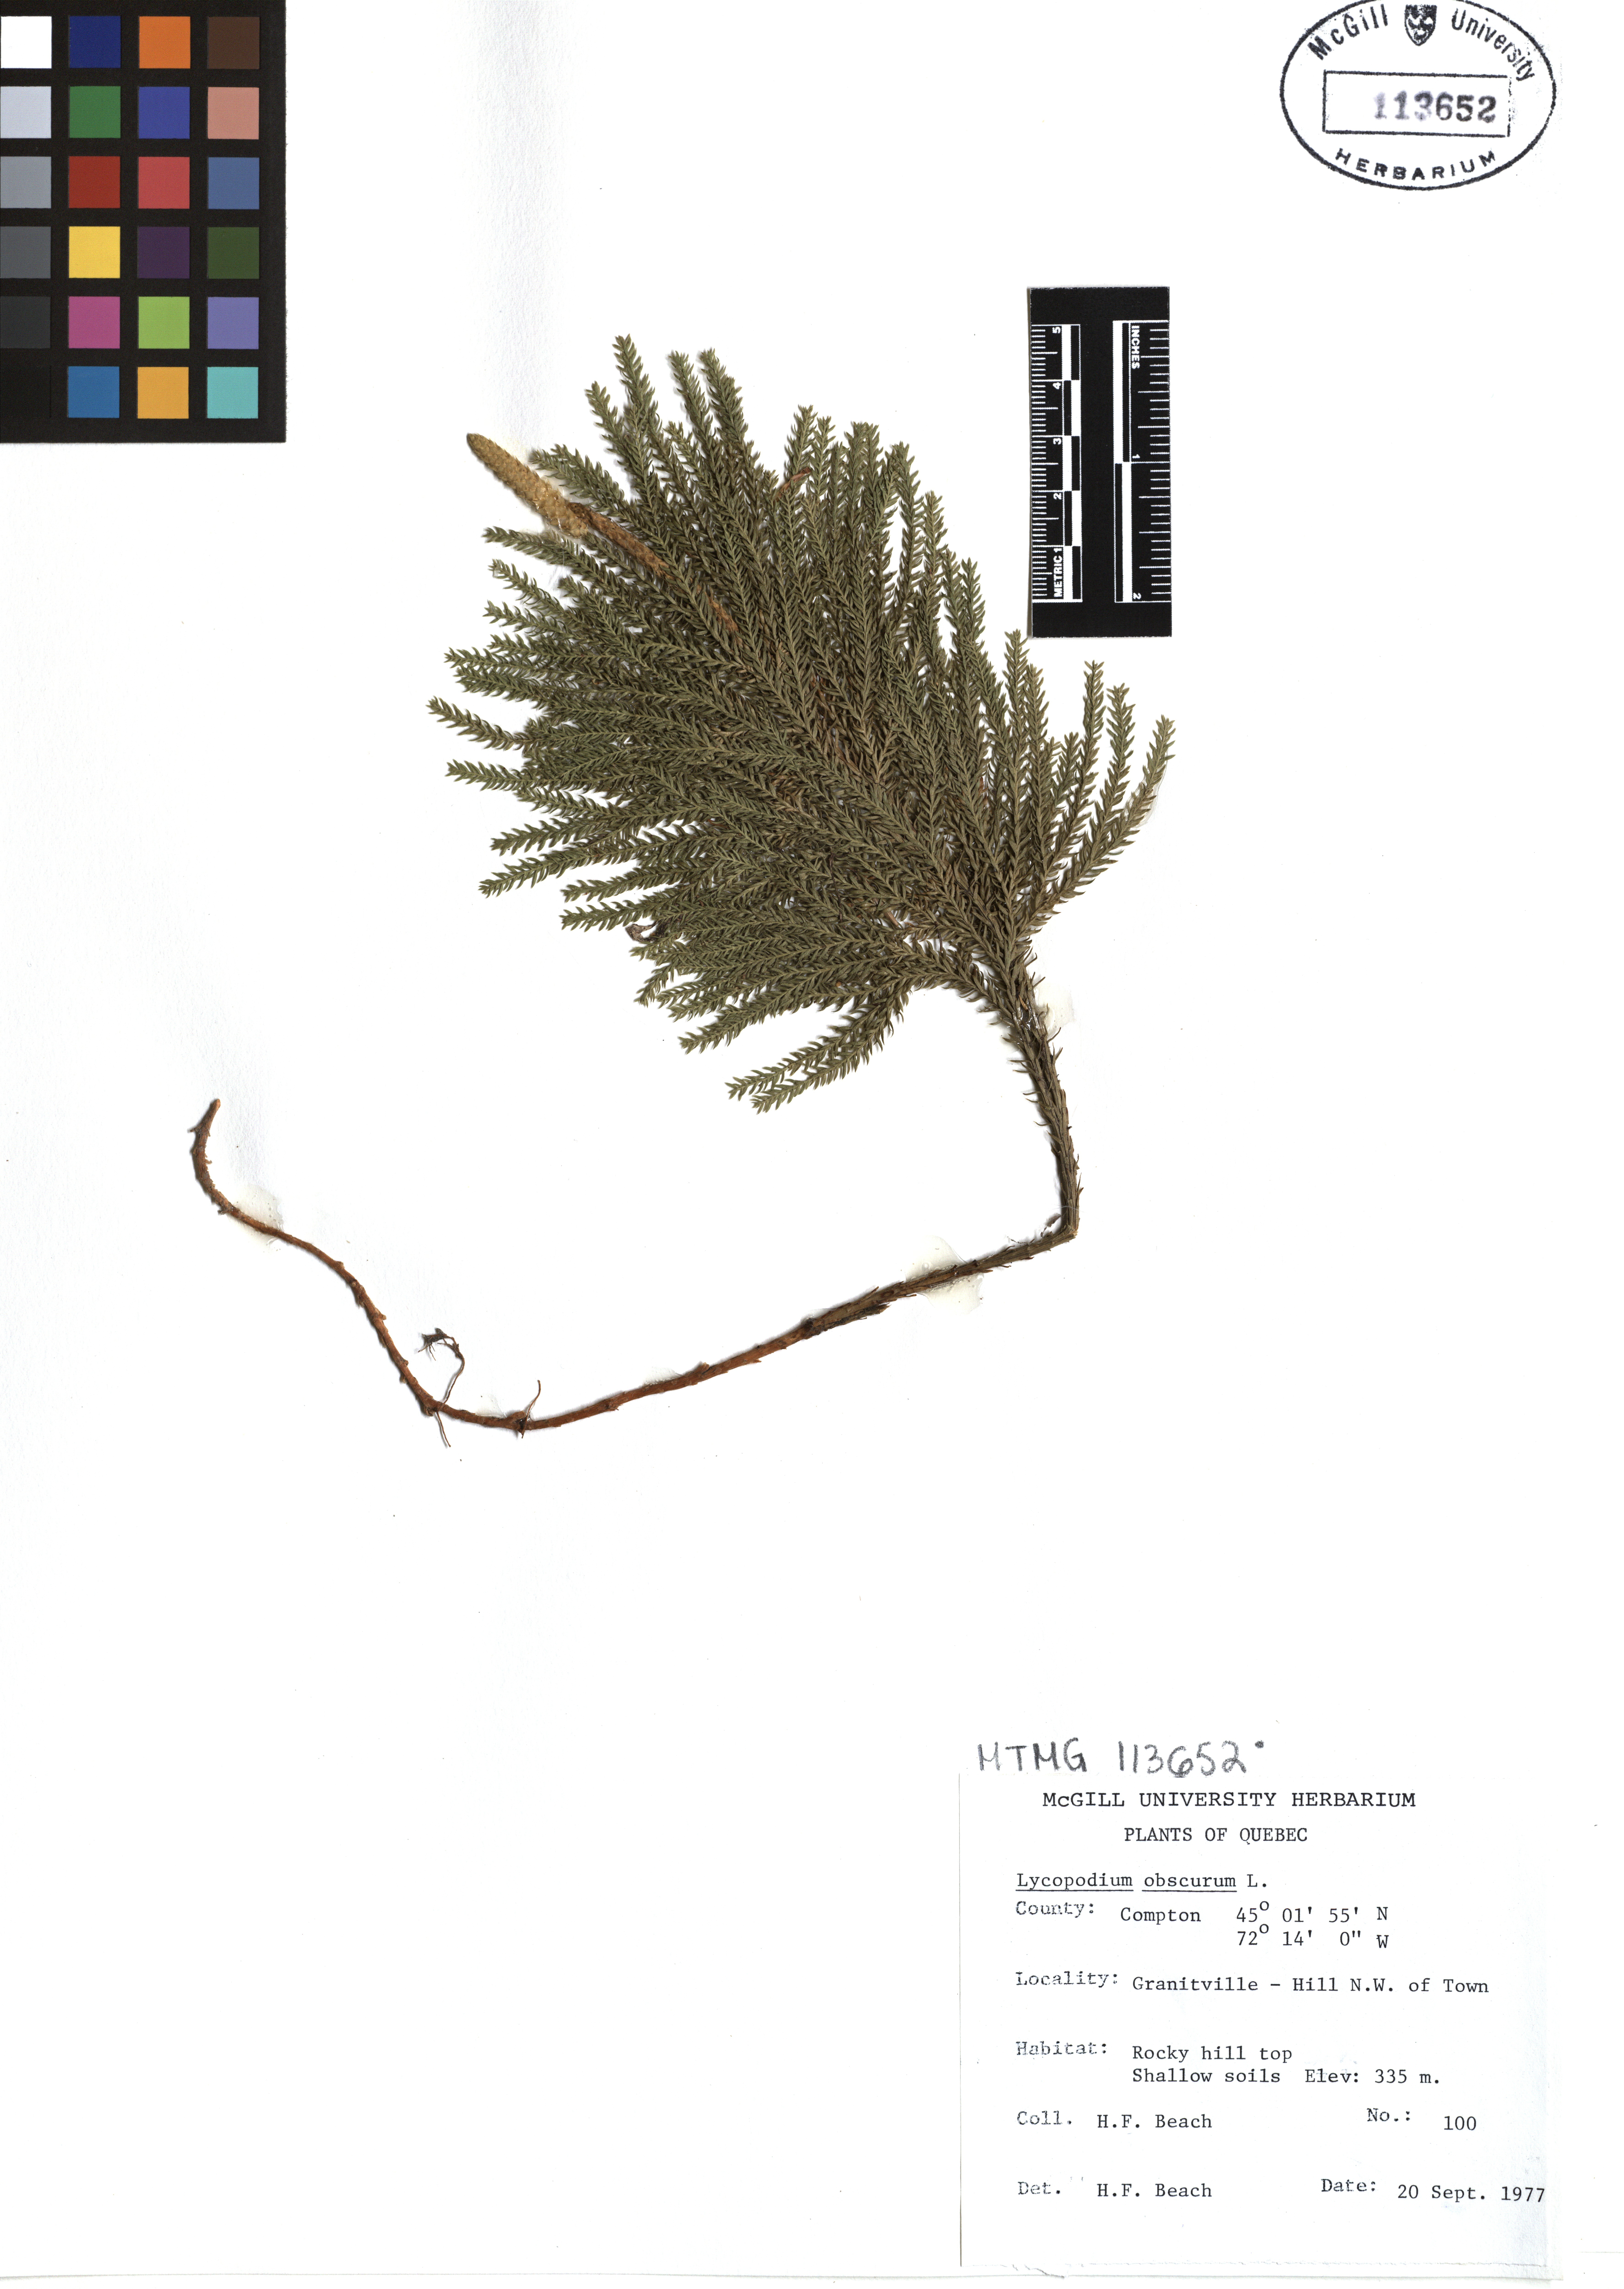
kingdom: Plantae
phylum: Tracheophyta
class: Lycopodiopsida
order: Lycopodiales
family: Lycopodiaceae
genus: Dendrolycopodium
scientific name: Dendrolycopodium obscurum
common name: Common ground-pine
